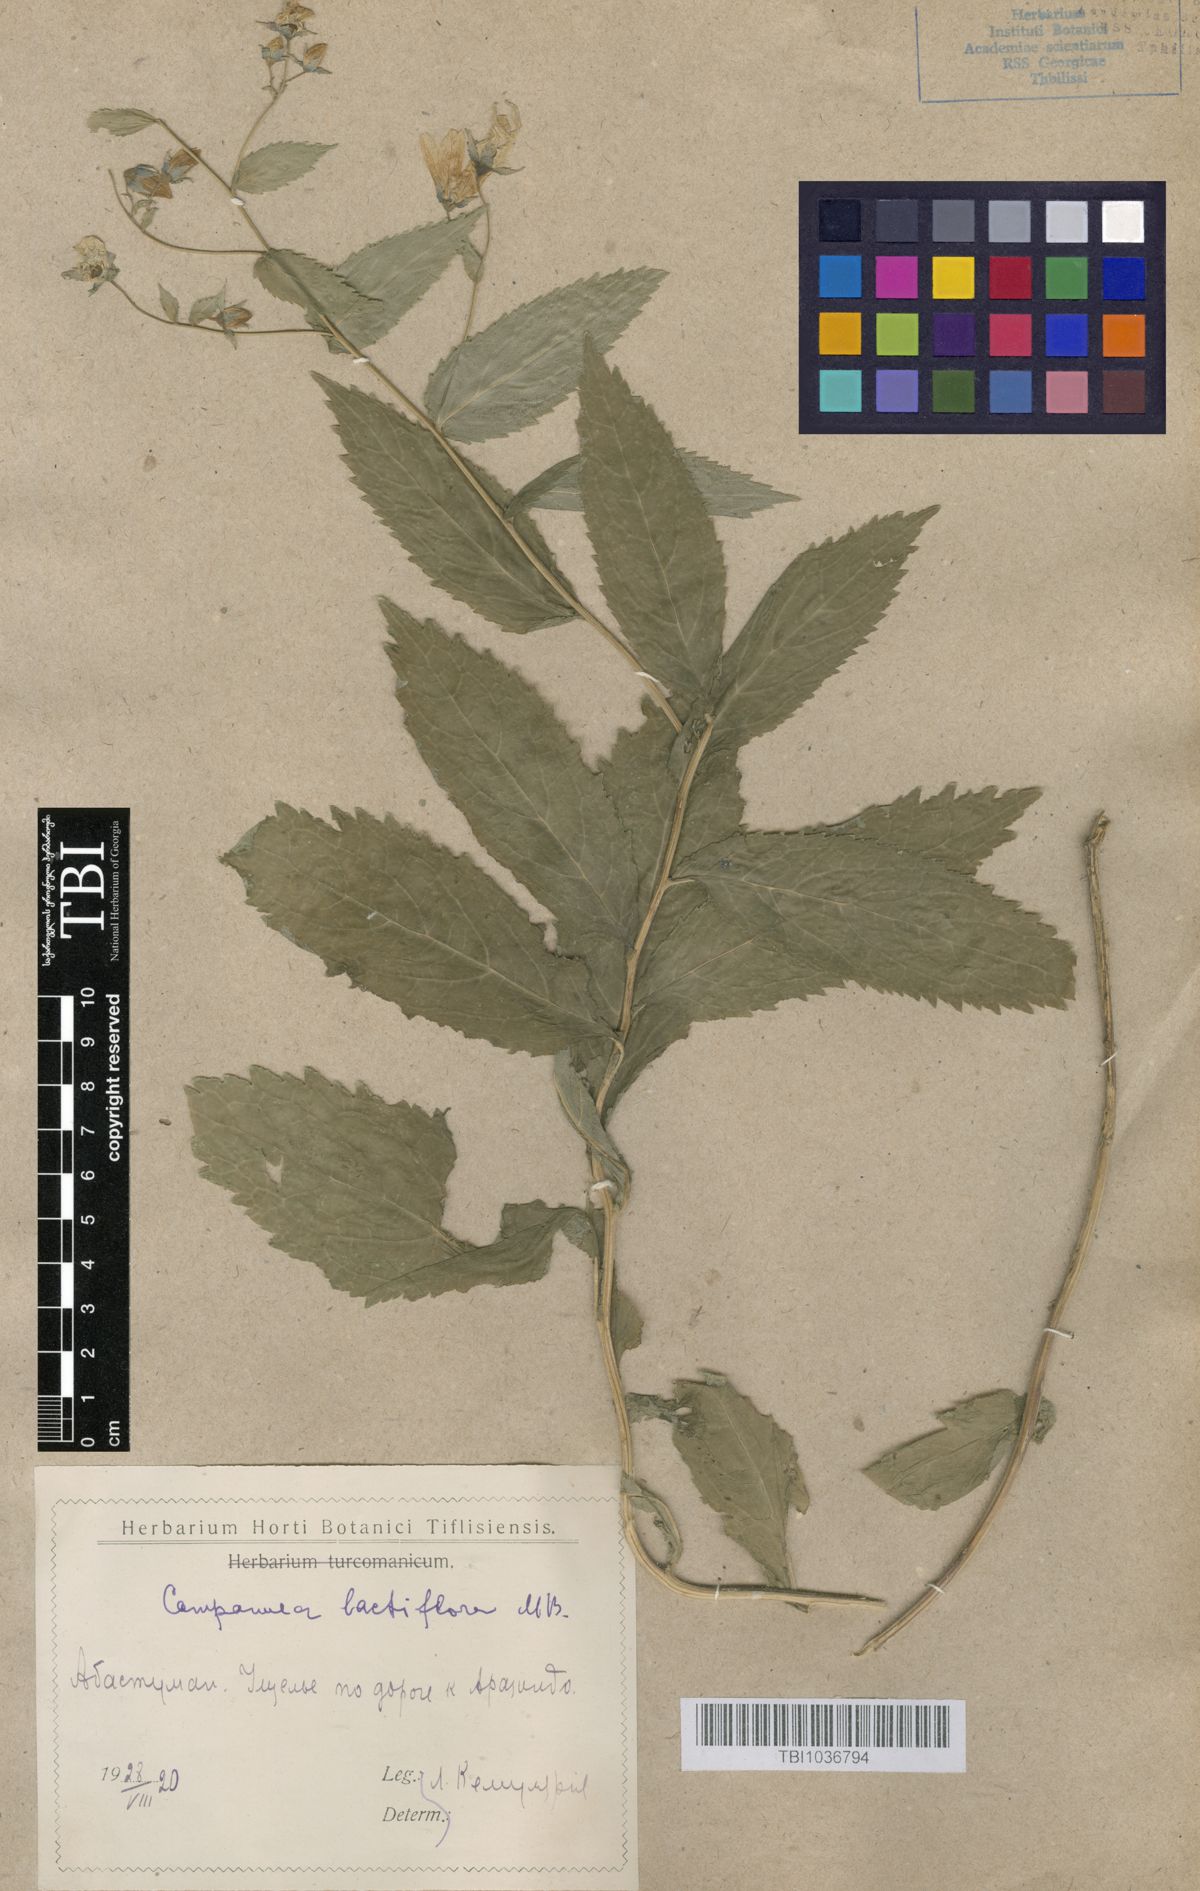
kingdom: Plantae
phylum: Tracheophyta
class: Magnoliopsida
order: Asterales
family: Campanulaceae
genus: Campanula
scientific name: Campanula lactiflora
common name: Milky bellflower
